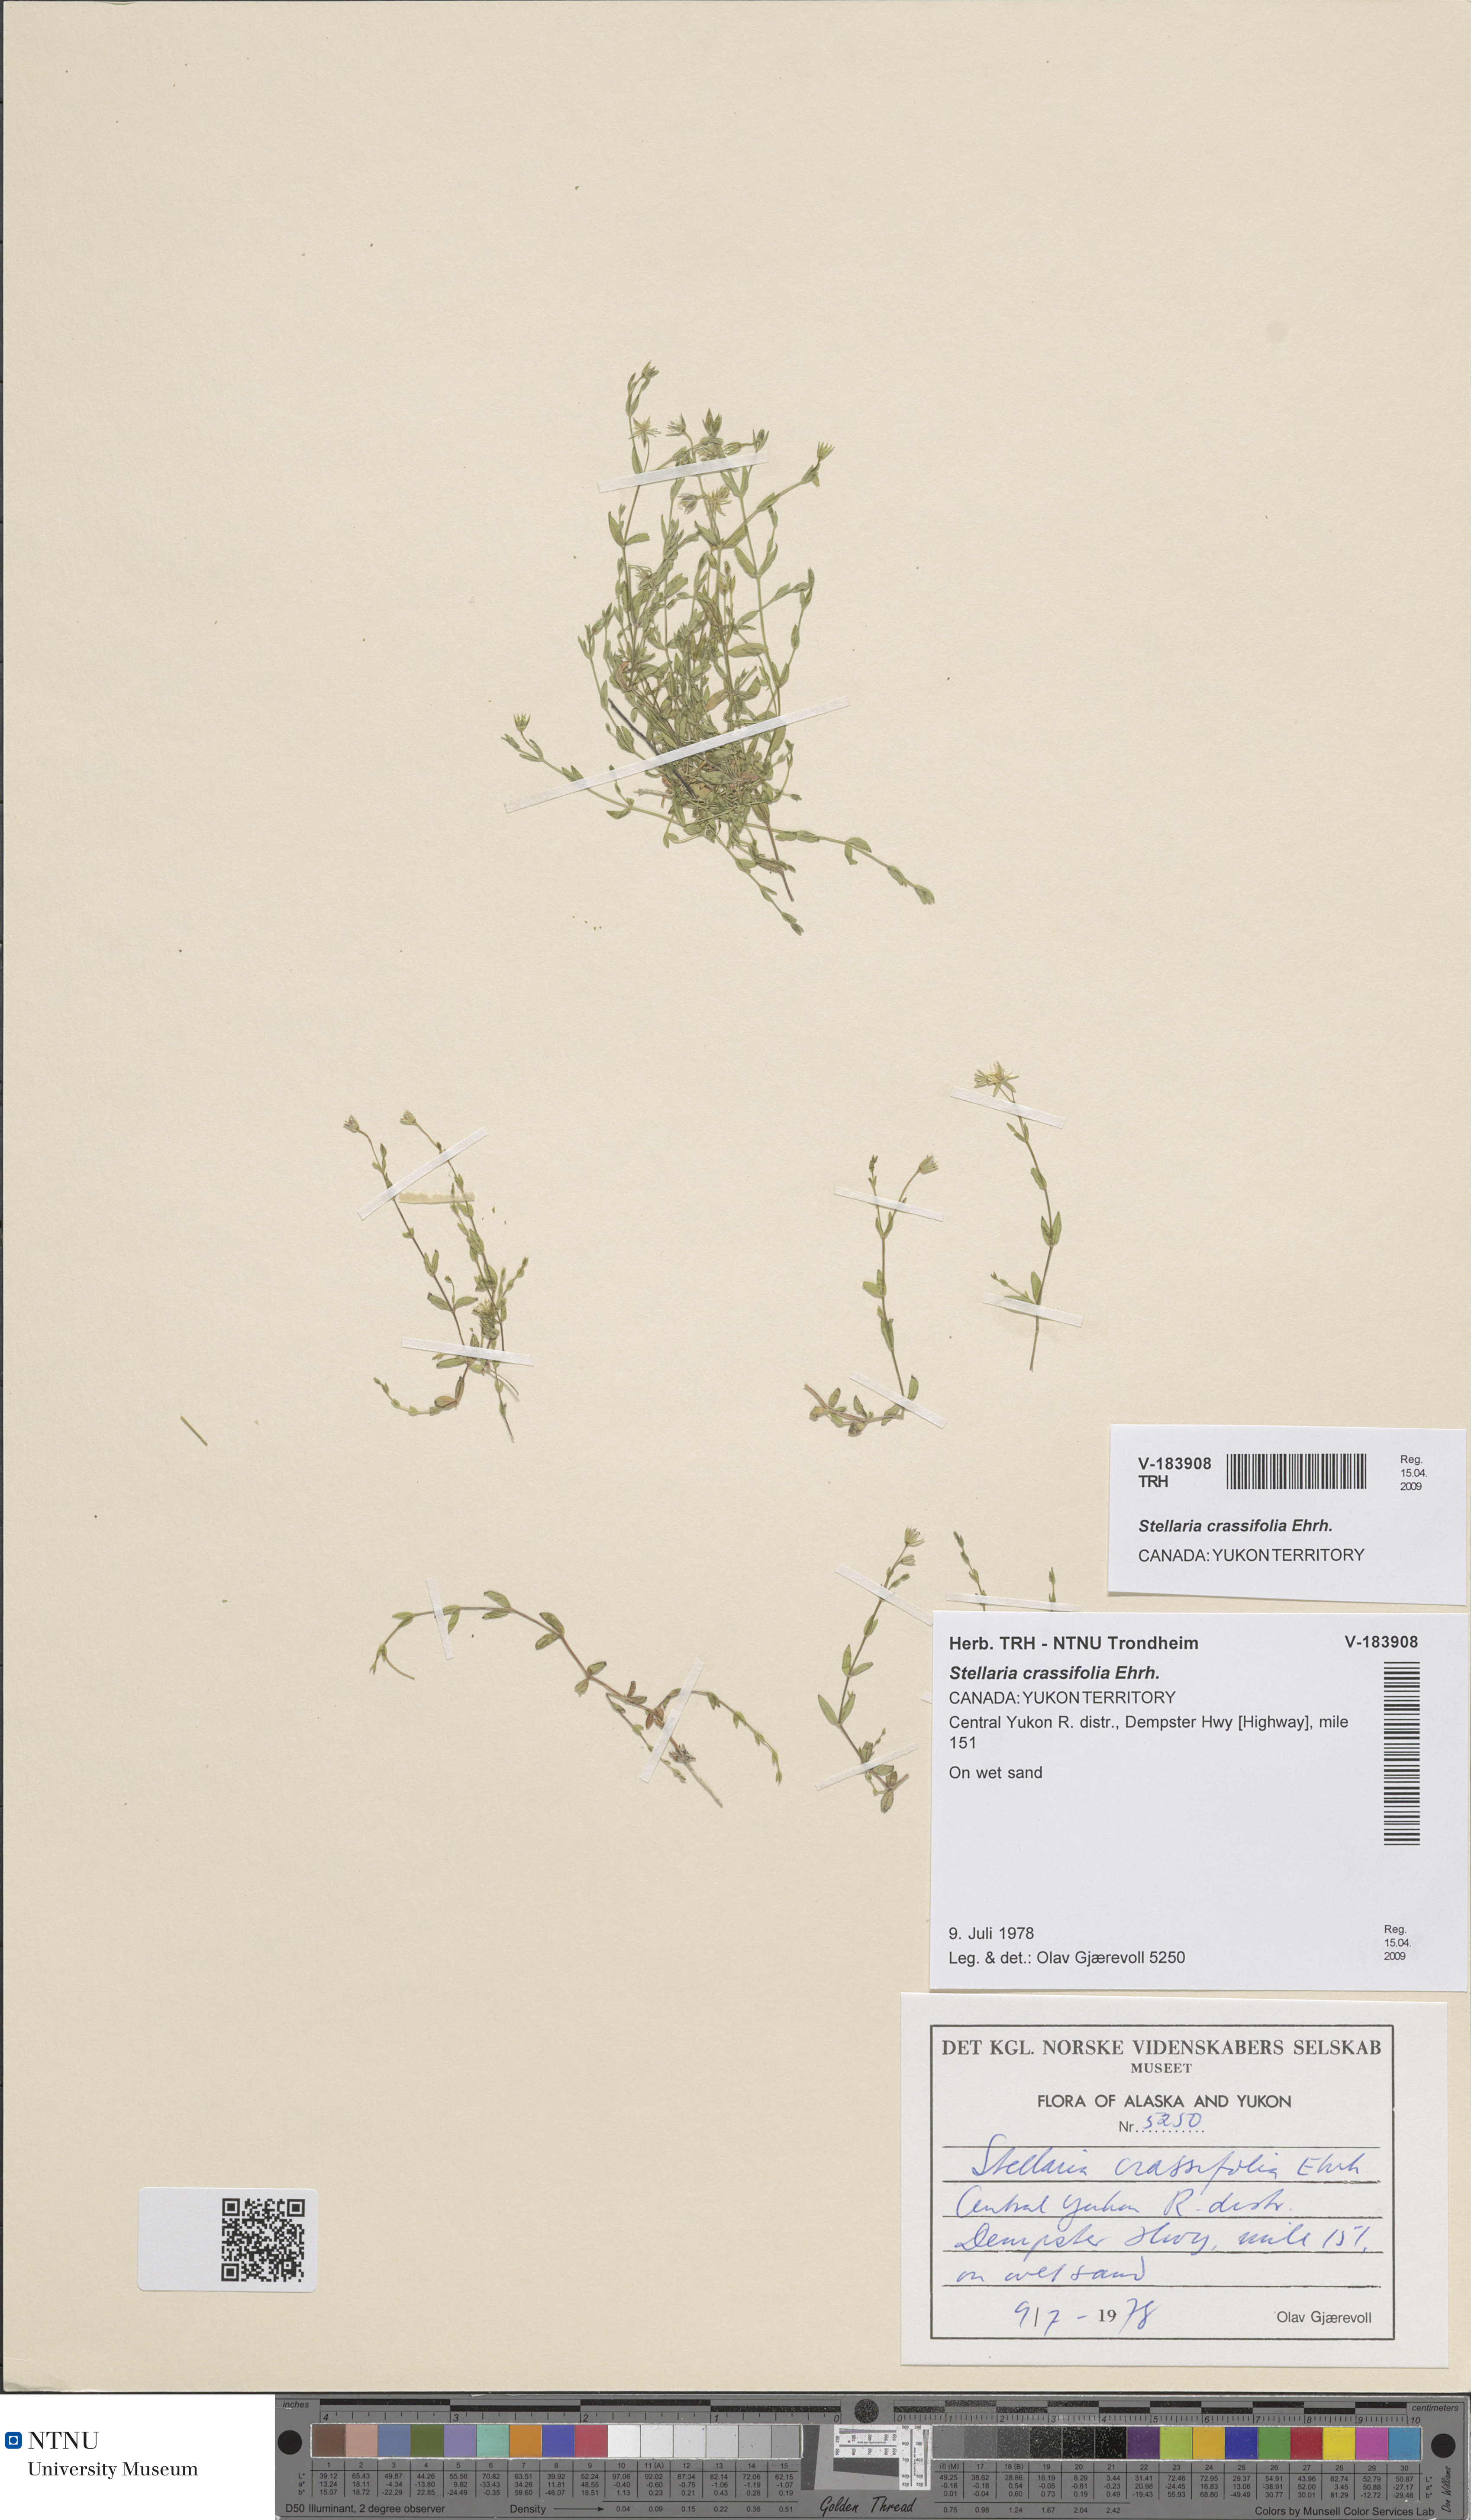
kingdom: Plantae
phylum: Tracheophyta
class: Magnoliopsida
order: Caryophyllales
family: Caryophyllaceae
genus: Stellaria
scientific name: Stellaria crassifolia
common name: Fleshy starwort
